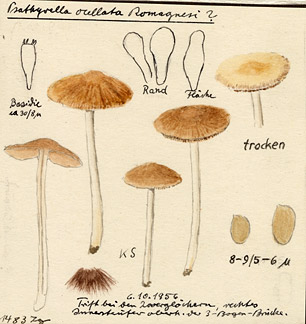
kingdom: Fungi
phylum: Basidiomycota
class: Agaricomycetes
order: Agaricales
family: Psathyrellaceae
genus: Psathyrella
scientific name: Psathyrella senex
